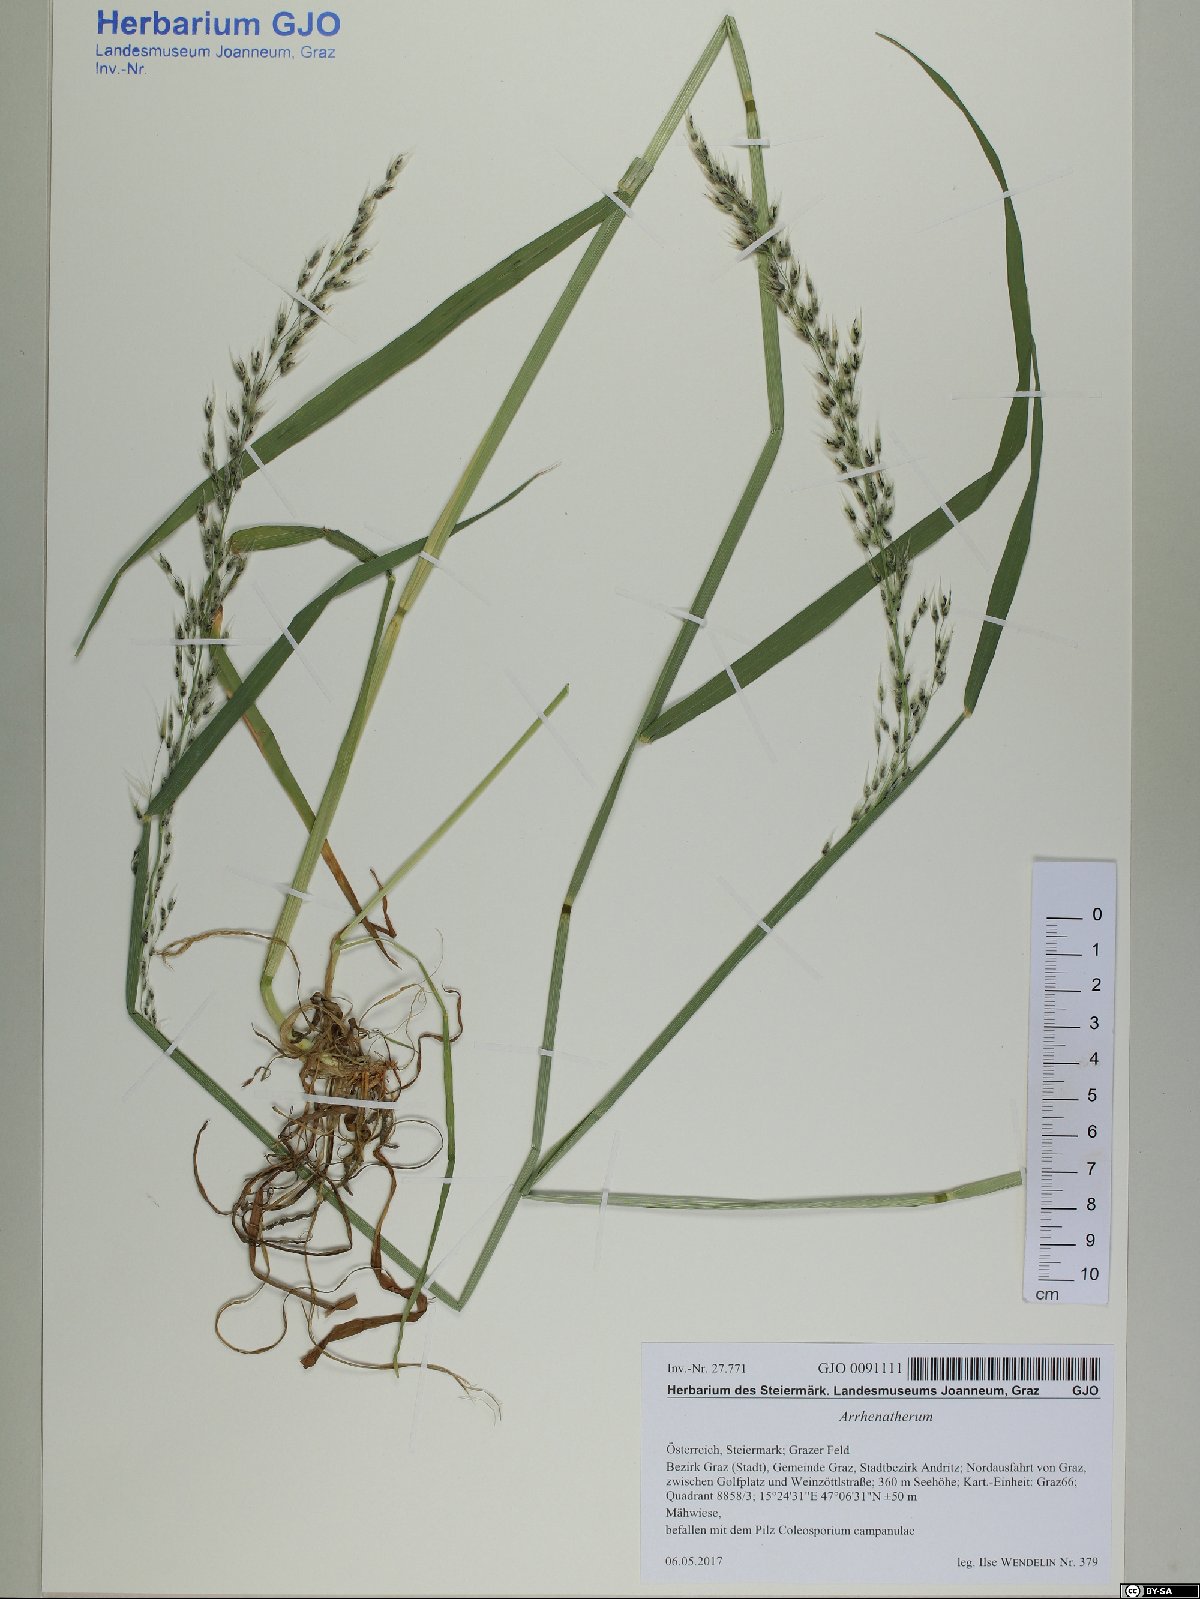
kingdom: Plantae
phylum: Tracheophyta
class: Liliopsida
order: Poales
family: Poaceae
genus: Arrhenatherum
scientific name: Arrhenatherum
